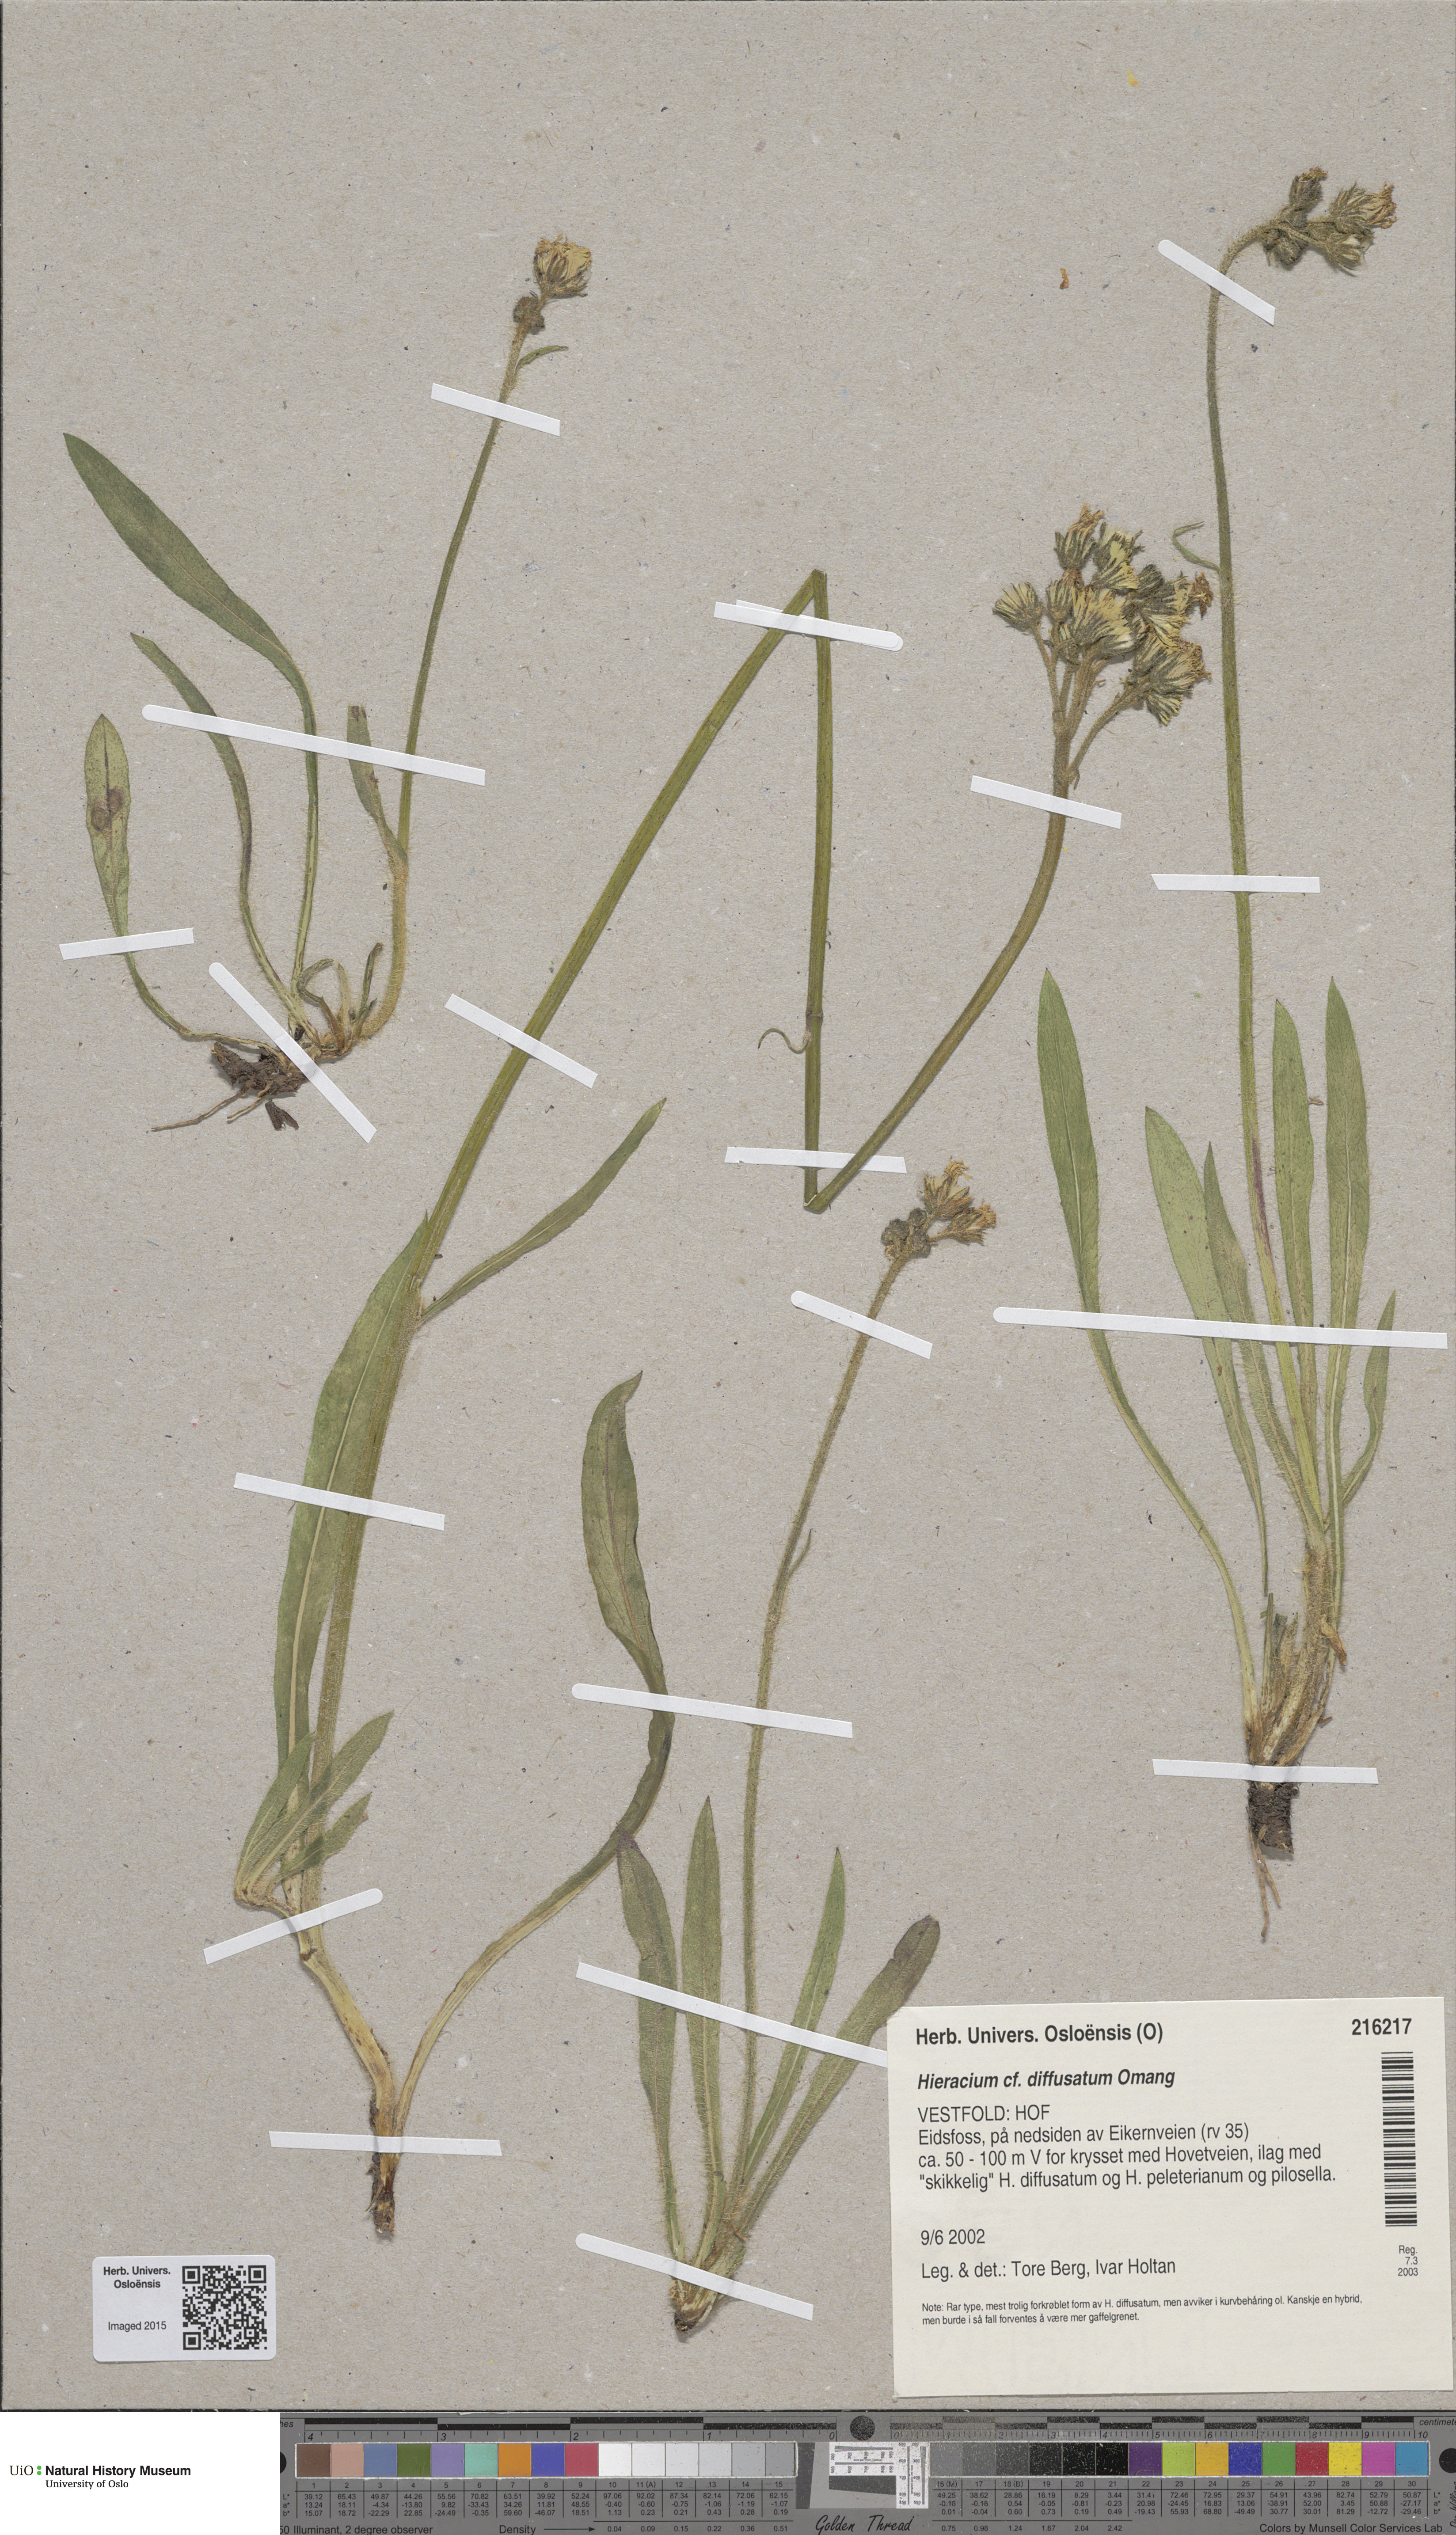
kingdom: Plantae
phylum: Tracheophyta
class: Magnoliopsida
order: Asterales
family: Asteraceae
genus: Pilosella
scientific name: Pilosella dubia
